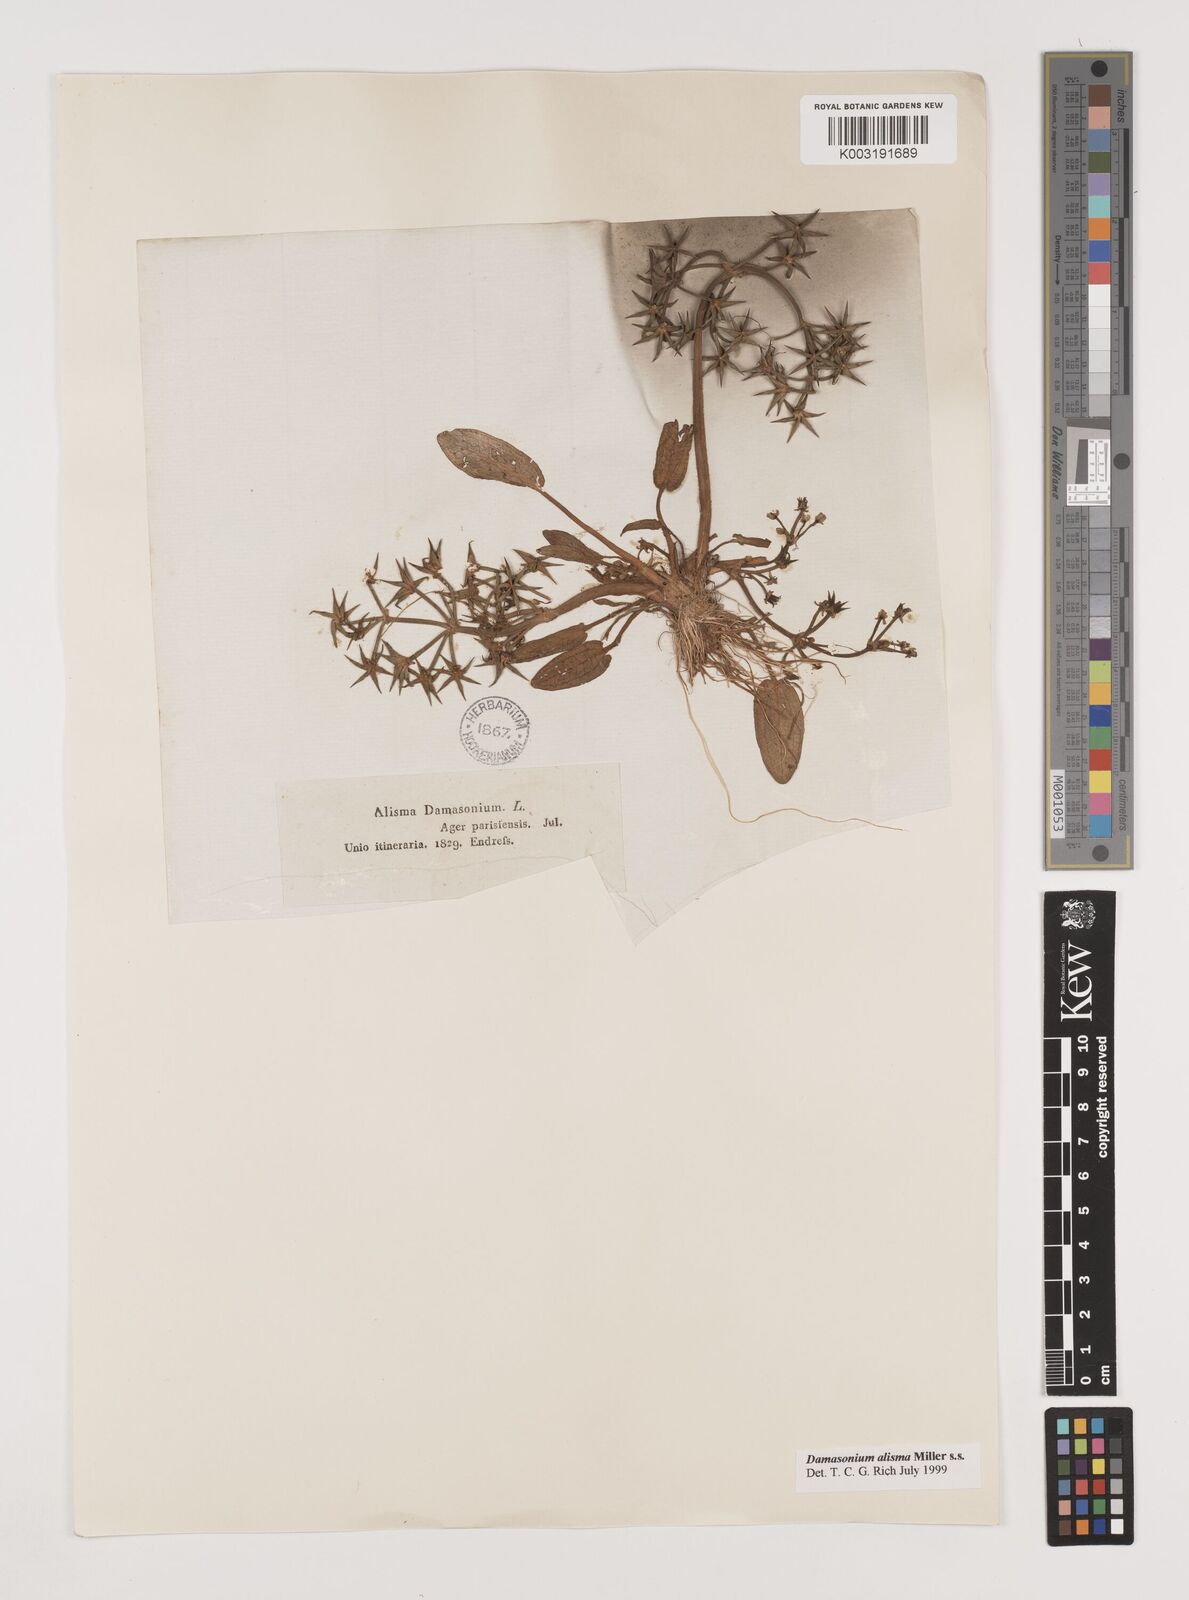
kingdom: Plantae
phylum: Tracheophyta
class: Liliopsida
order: Alismatales
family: Alismataceae
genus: Damasonium
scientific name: Damasonium alisma
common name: Starfruit
